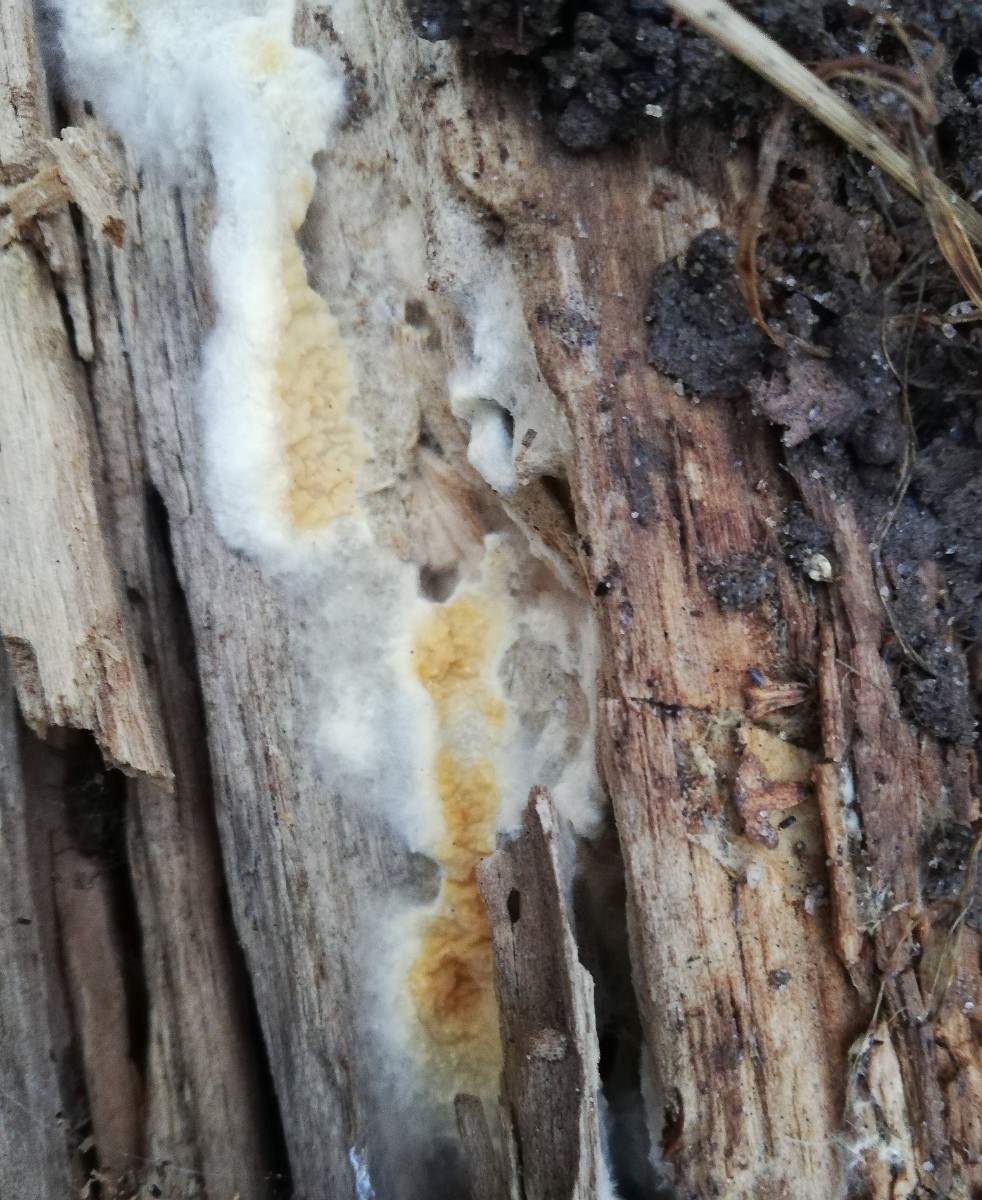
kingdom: Fungi
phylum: Basidiomycota
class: Agaricomycetes
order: Boletales
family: Serpulaceae
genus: Serpula
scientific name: Serpula himantioides
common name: tyndkødet hussvamp
